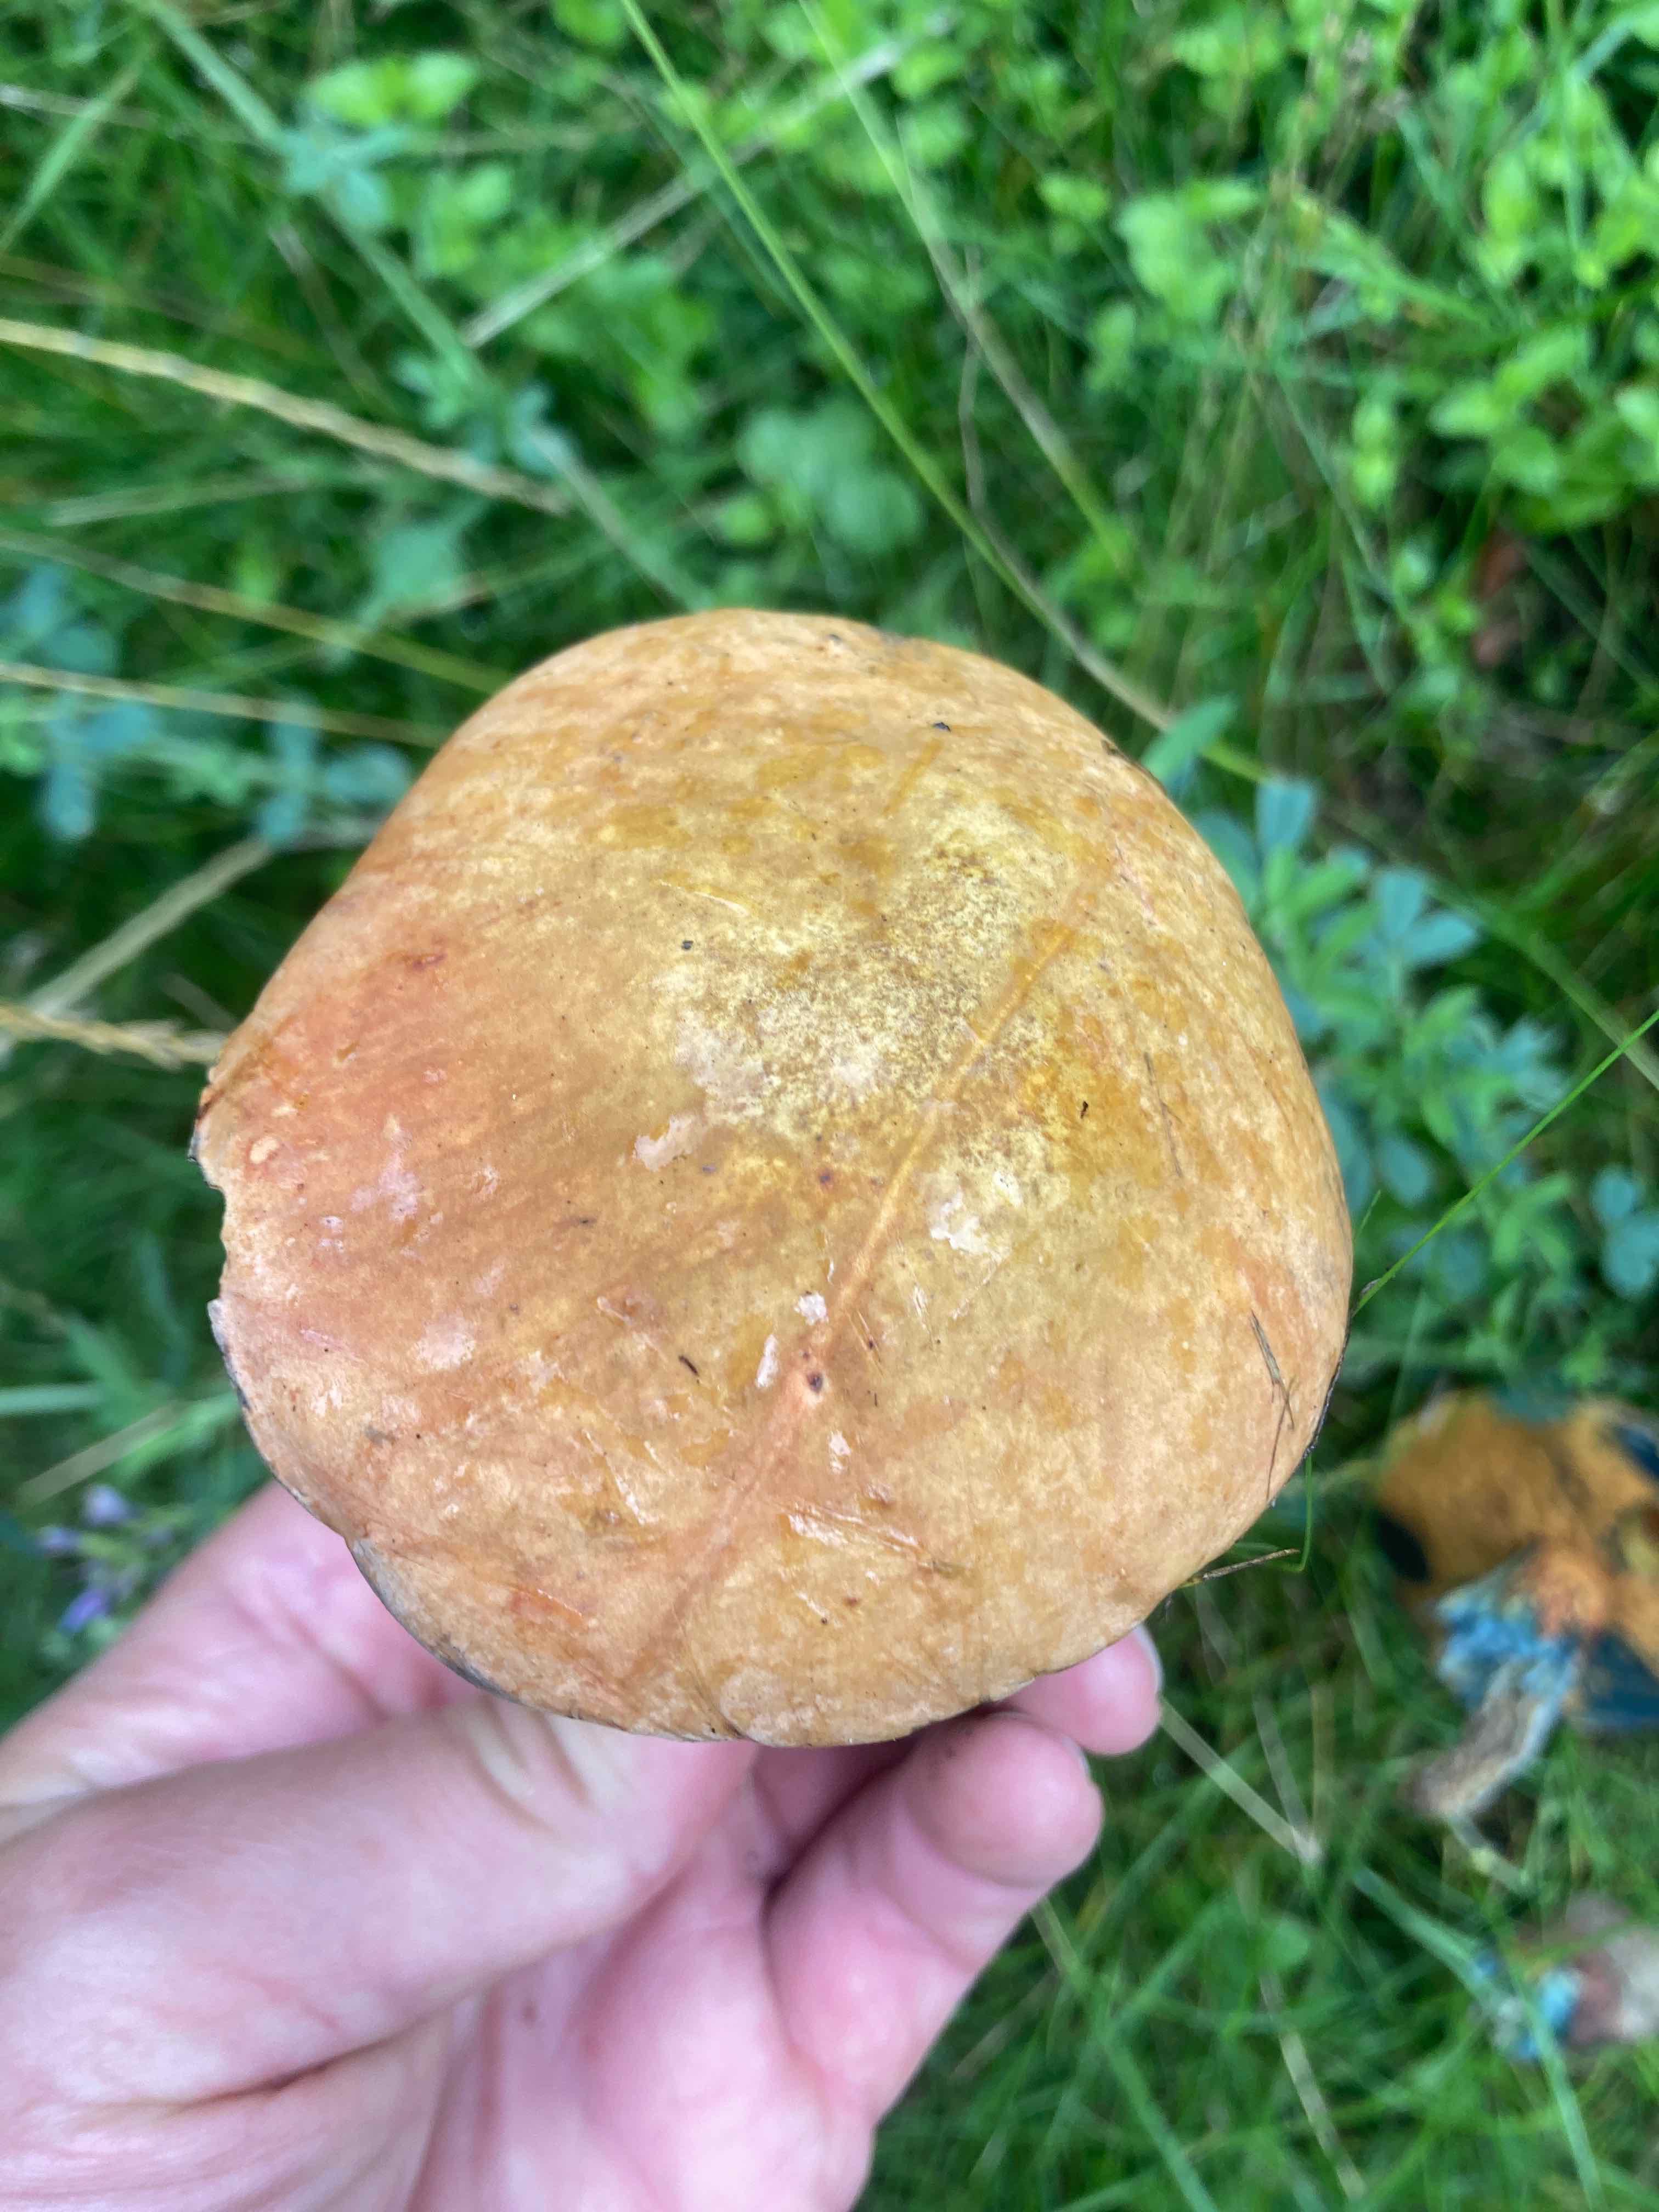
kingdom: Fungi
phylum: Basidiomycota
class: Agaricomycetes
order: Boletales
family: Boletaceae
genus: Suillellus
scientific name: Suillellus luridus
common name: netstokket indigorørhat
